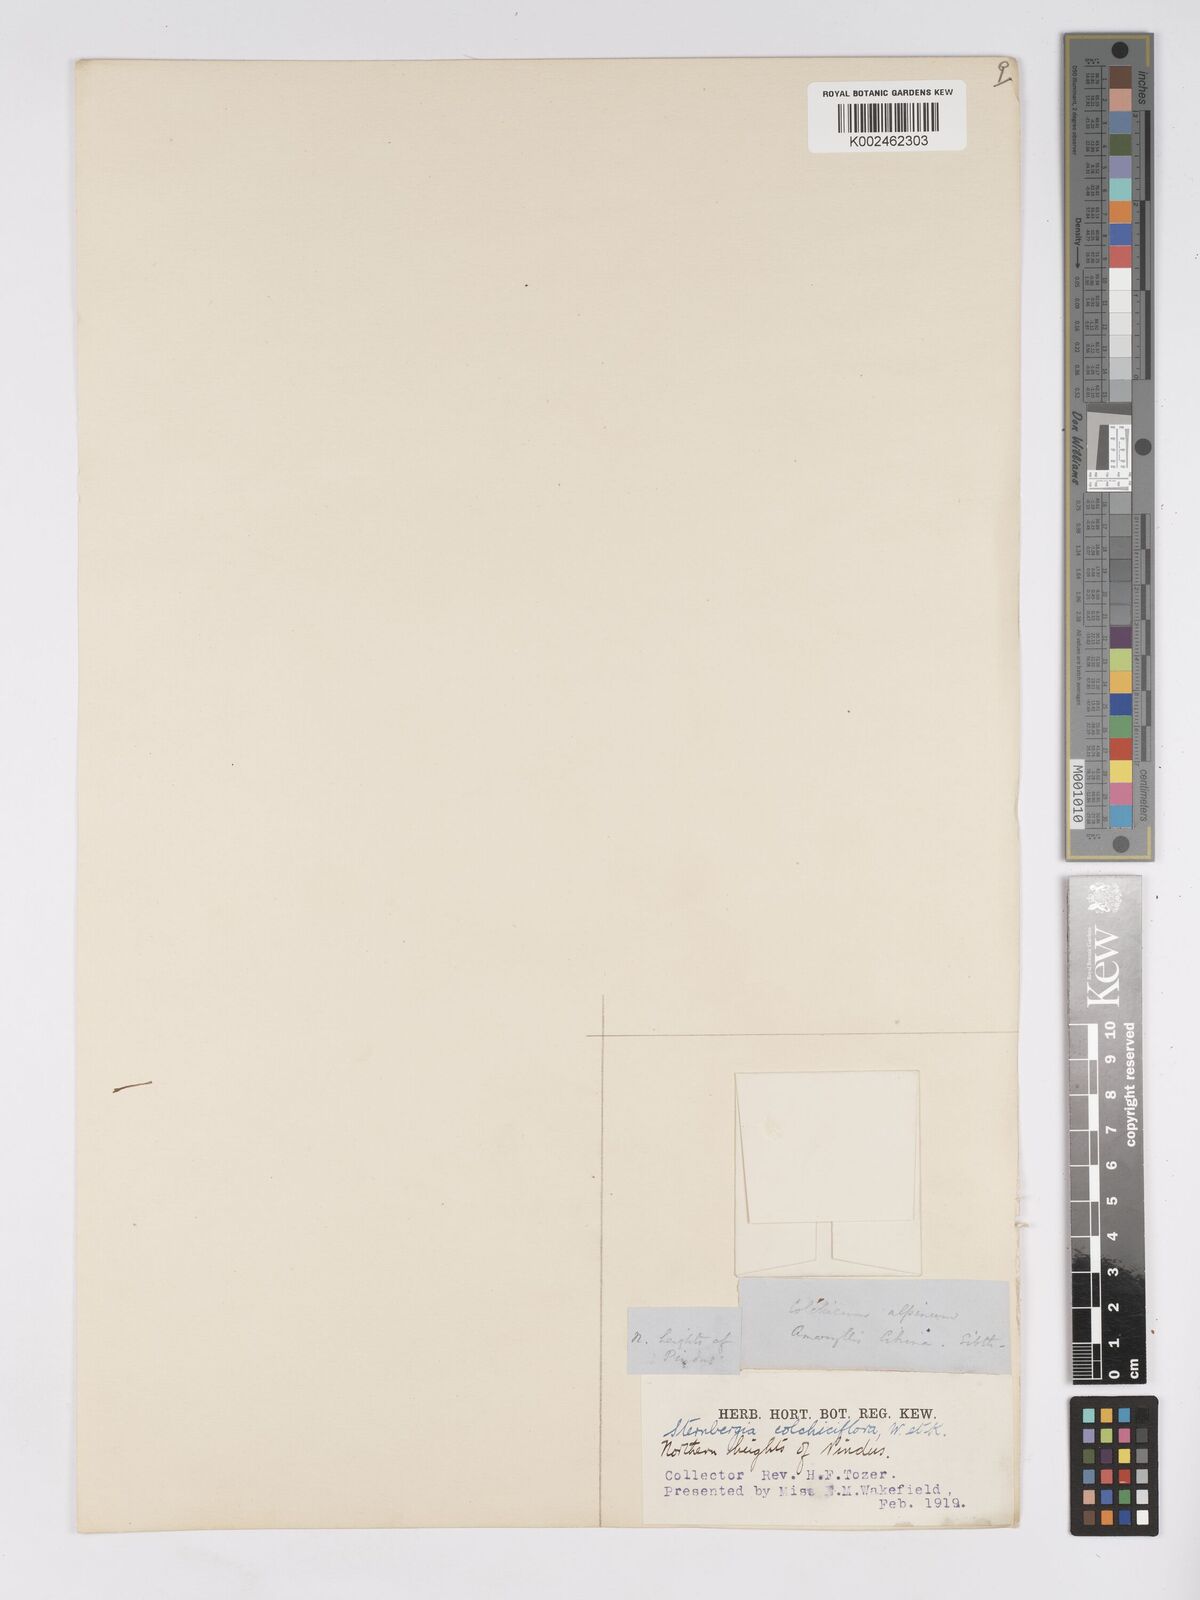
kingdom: Plantae
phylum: Tracheophyta
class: Liliopsida
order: Asparagales
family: Amaryllidaceae
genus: Sternbergia
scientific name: Sternbergia colchiciflora
